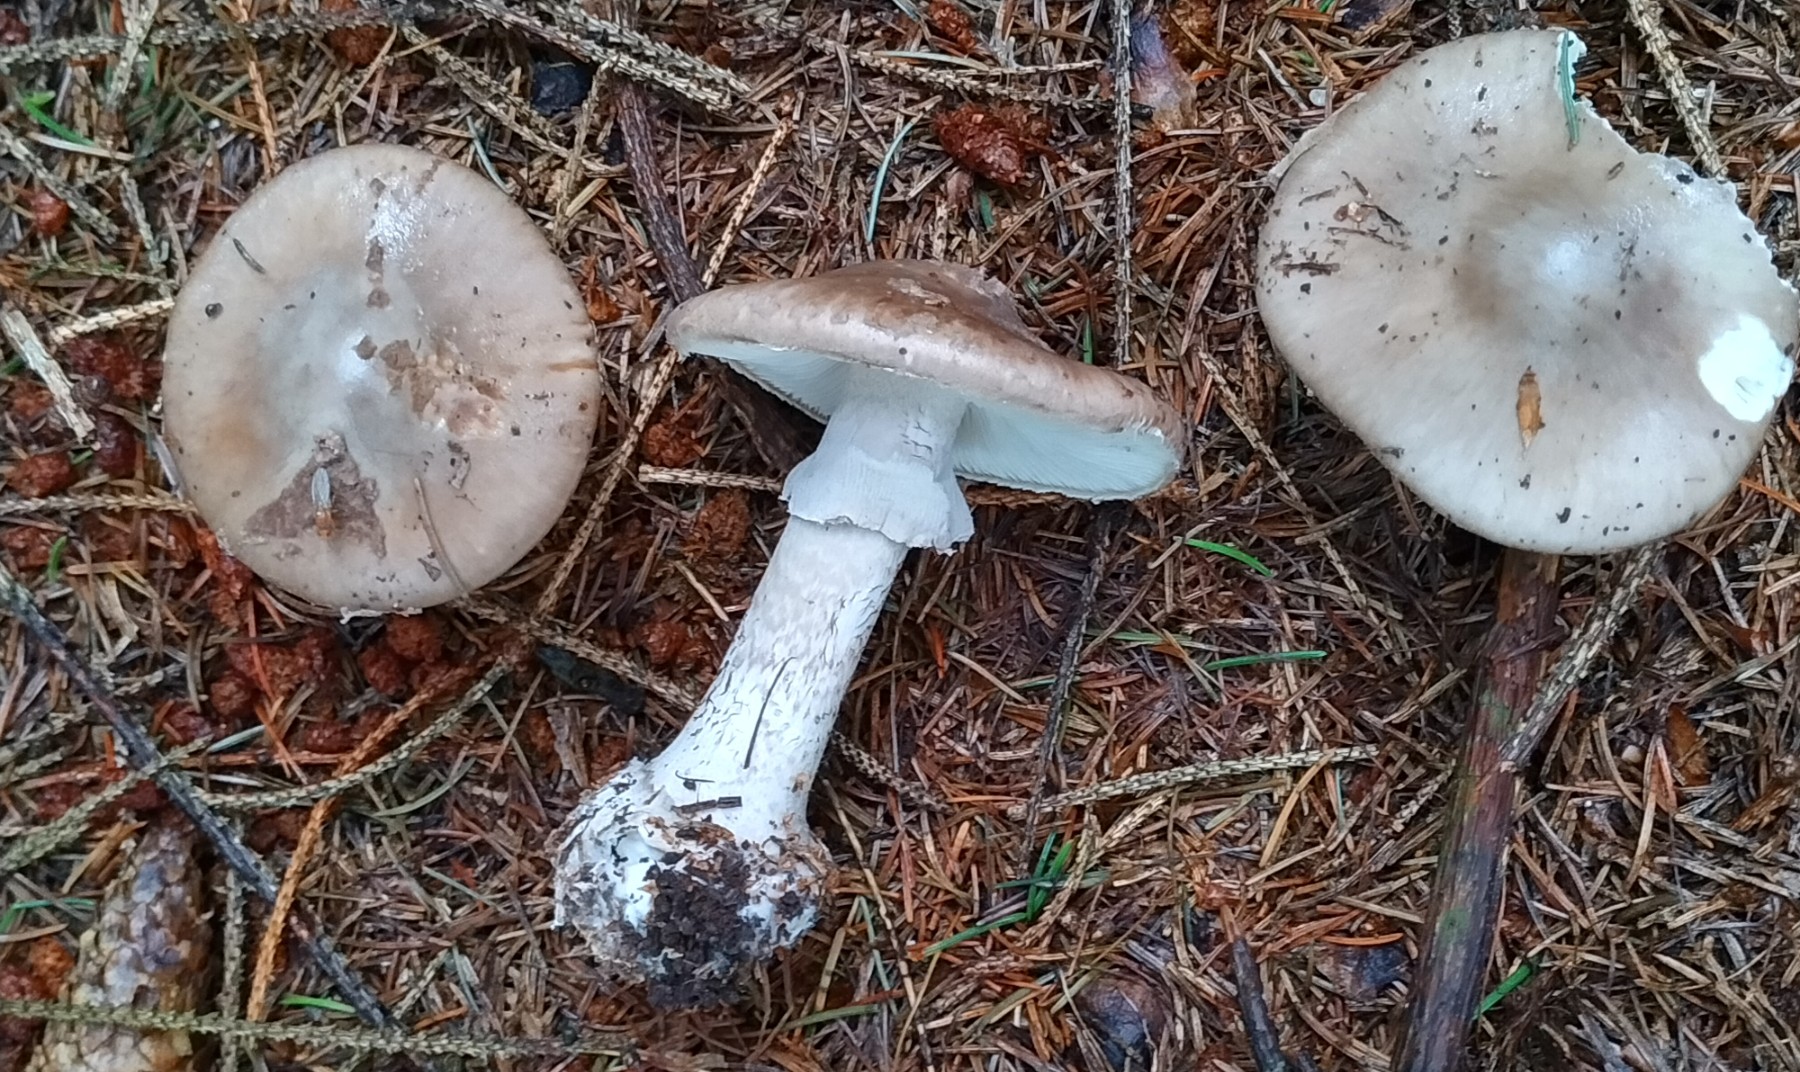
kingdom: Fungi
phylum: Basidiomycota
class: Agaricomycetes
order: Agaricales
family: Amanitaceae
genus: Amanita
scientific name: Amanita porphyria
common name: porfyr-fluesvamp
